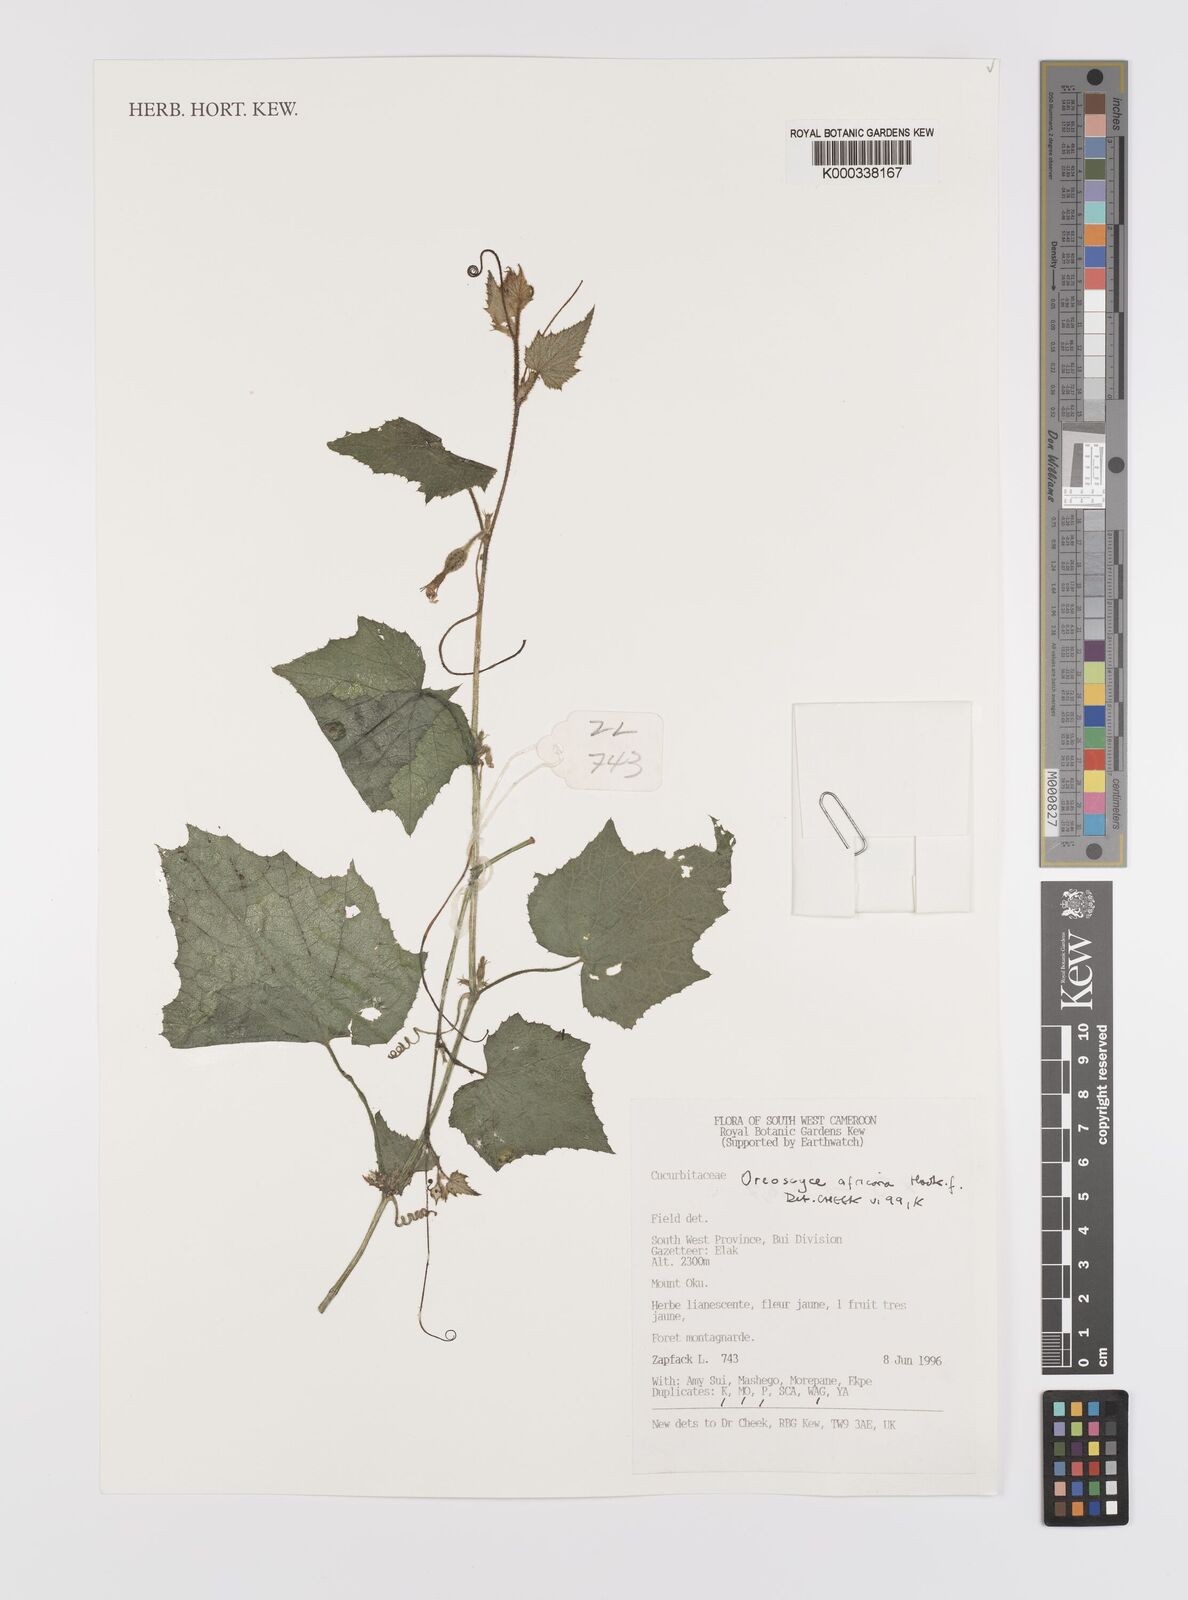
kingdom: Plantae
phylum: Tracheophyta
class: Magnoliopsida
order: Cucurbitales
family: Cucurbitaceae
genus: Cucumis
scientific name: Cucumis oreosyce
